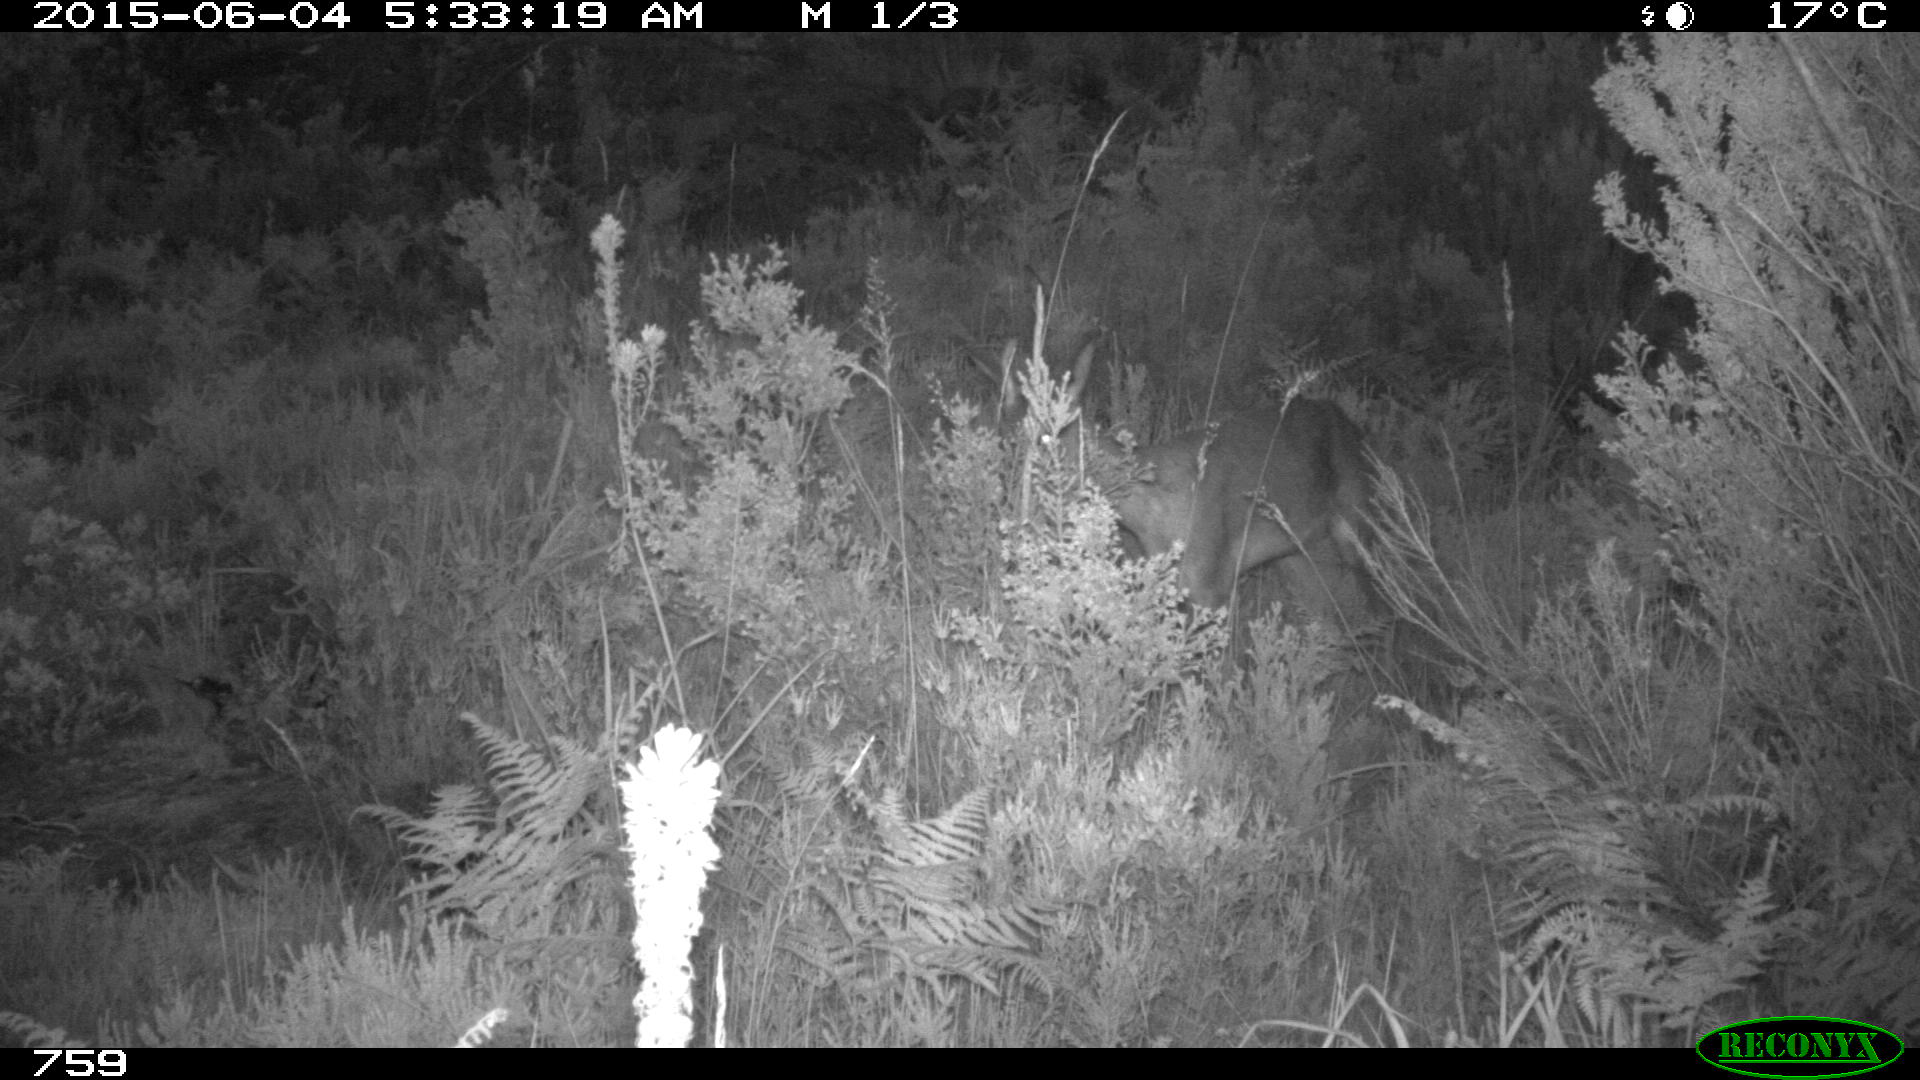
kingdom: Animalia
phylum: Chordata
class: Mammalia
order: Artiodactyla
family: Cervidae
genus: Capreolus
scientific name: Capreolus capreolus
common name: Western roe deer
